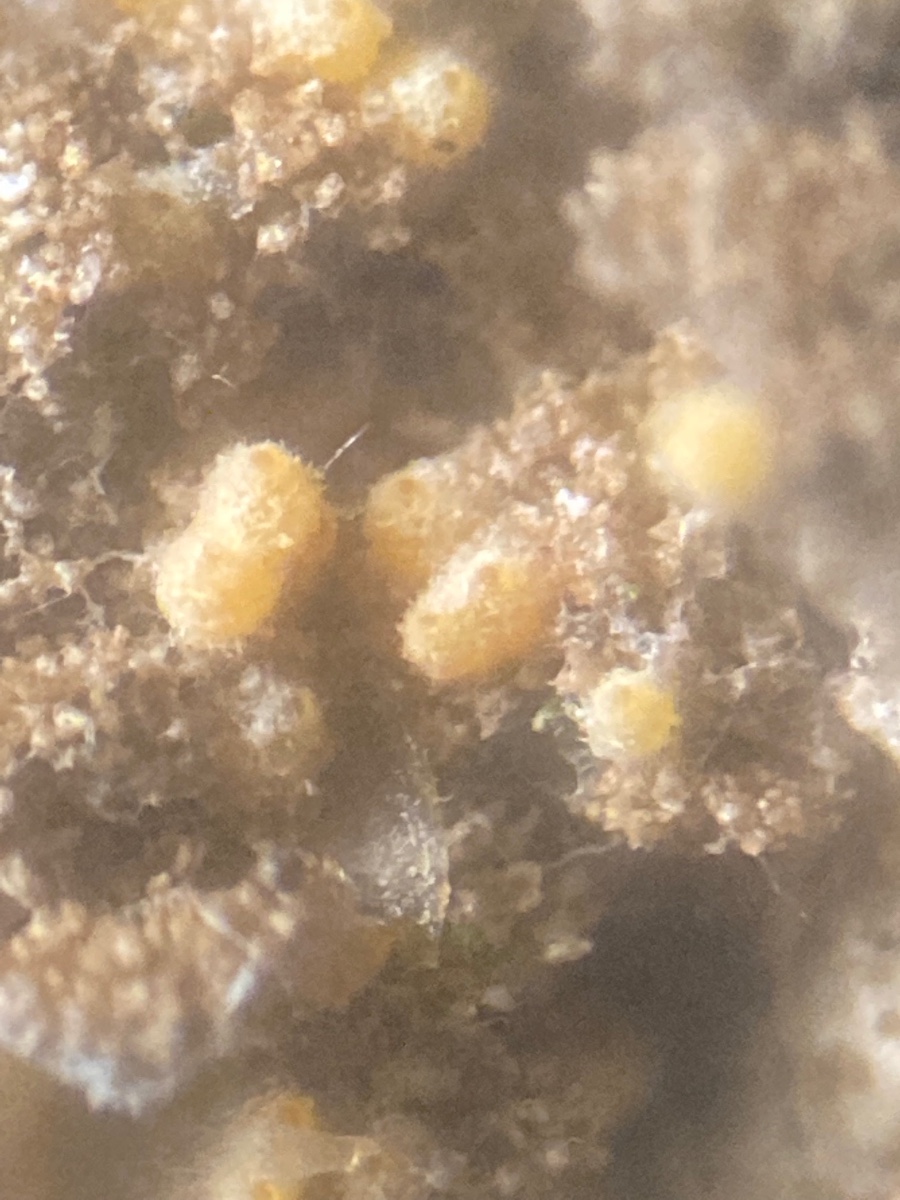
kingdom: Fungi
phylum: Ascomycota
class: Sordariomycetes
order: Hypocreales
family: Bionectriaceae
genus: Paranectria
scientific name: Paranectria oropensis
